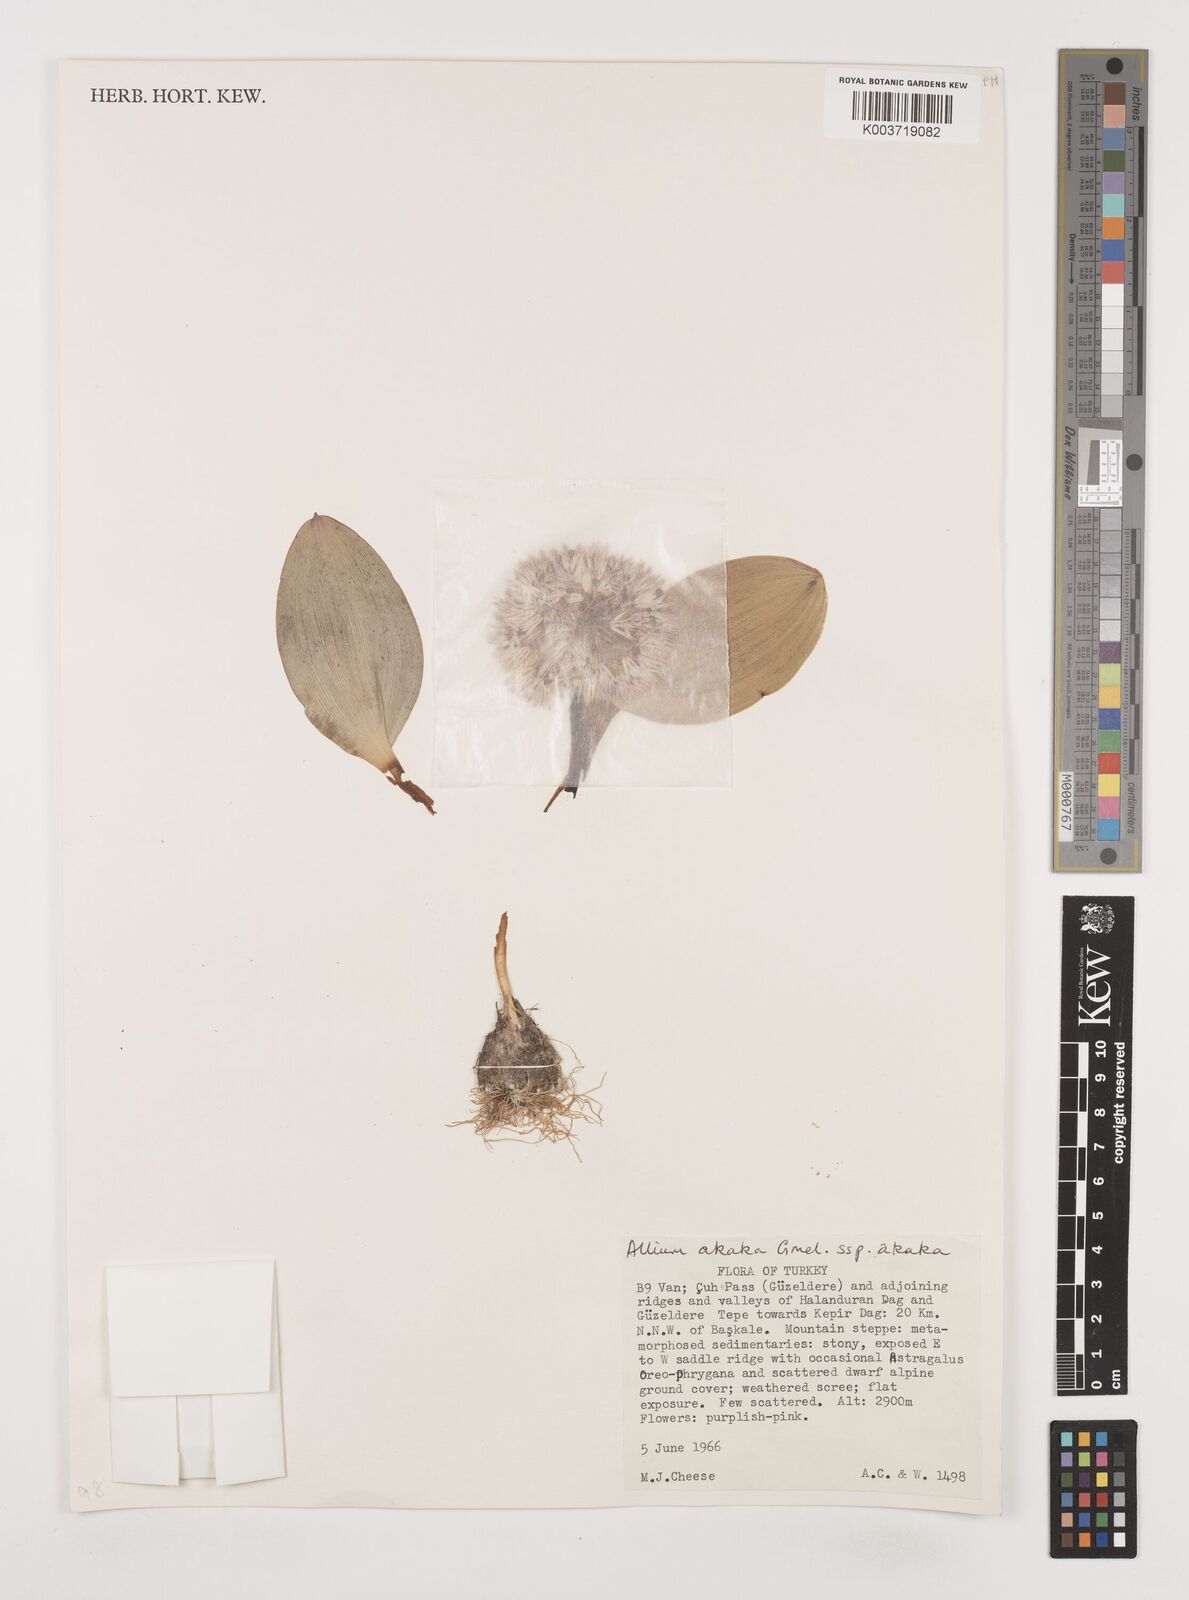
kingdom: Plantae
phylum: Tracheophyta
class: Liliopsida
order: Asparagales
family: Amaryllidaceae
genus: Allium
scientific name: Allium akaka
